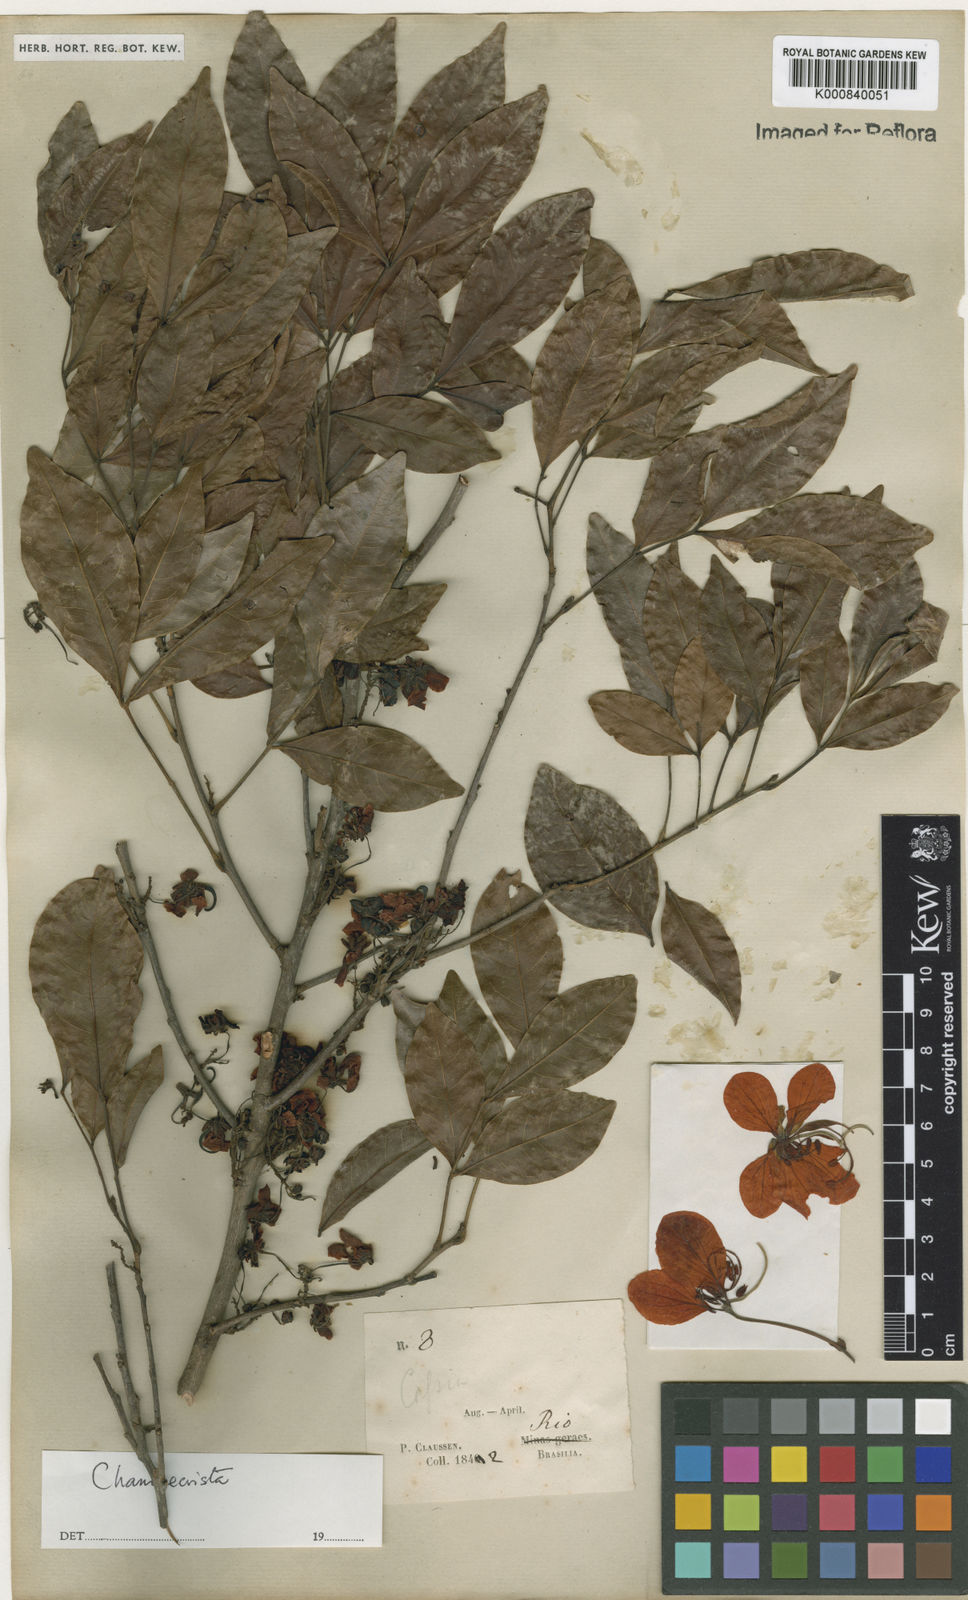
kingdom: Plantae
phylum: Tracheophyta
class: Magnoliopsida
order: Fabales
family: Fabaceae
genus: Chamaecrista
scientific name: Chamaecrista ensiformis
